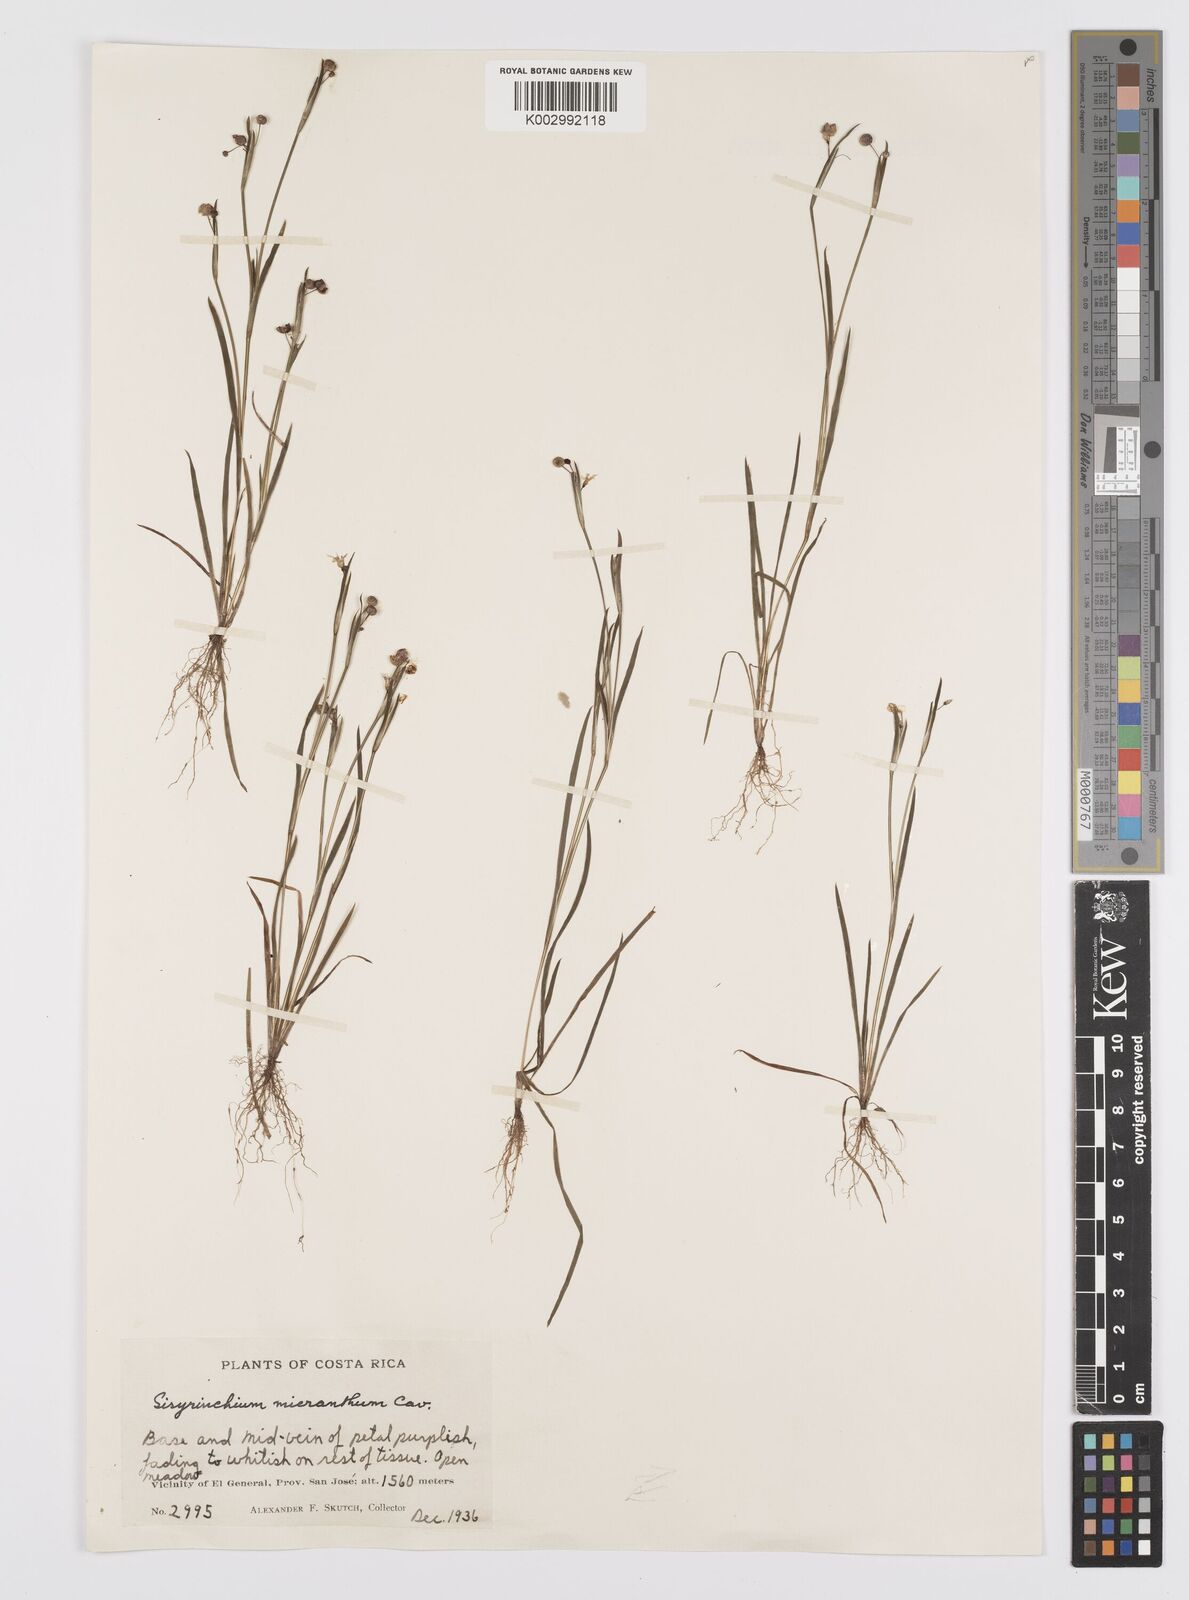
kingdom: Plantae
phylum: Tracheophyta
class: Liliopsida
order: Asparagales
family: Iridaceae
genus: Sisyrinchium
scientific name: Sisyrinchium micranthum
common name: Bermuda pigroot
